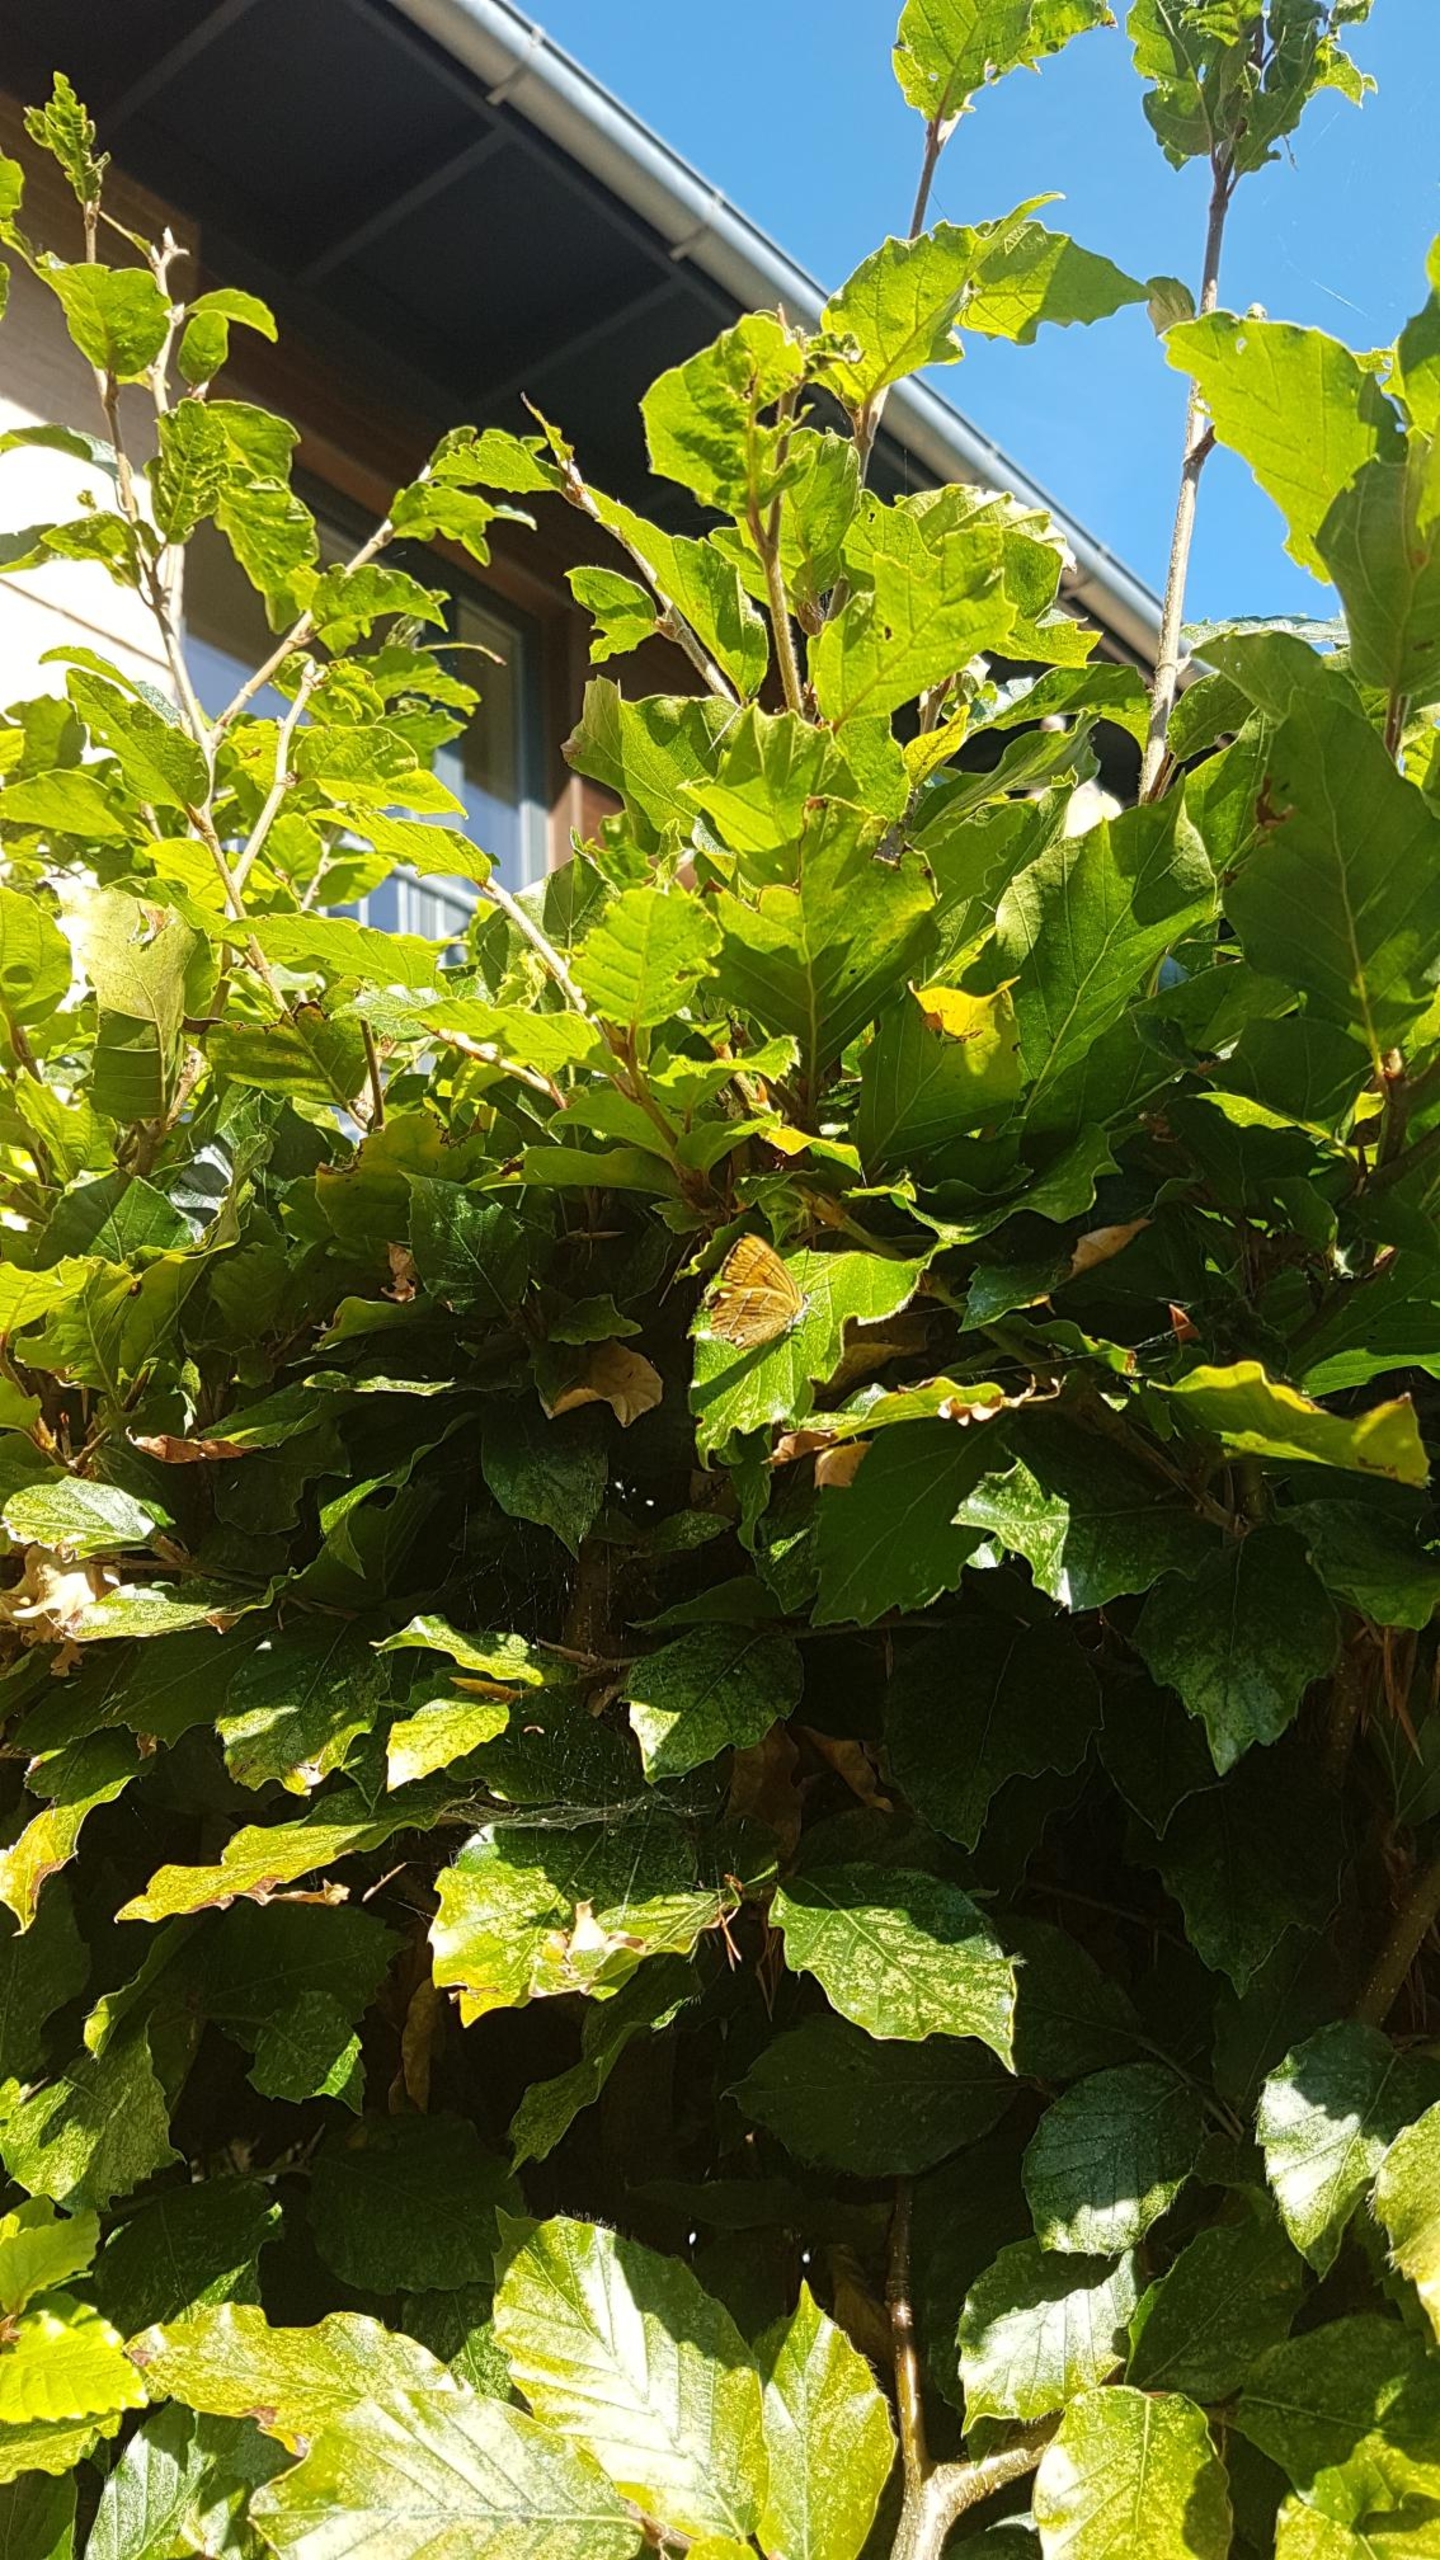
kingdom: Animalia
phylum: Arthropoda
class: Insecta
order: Lepidoptera
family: Lycaenidae
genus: Thecla
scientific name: Thecla betulae
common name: Guldhale
